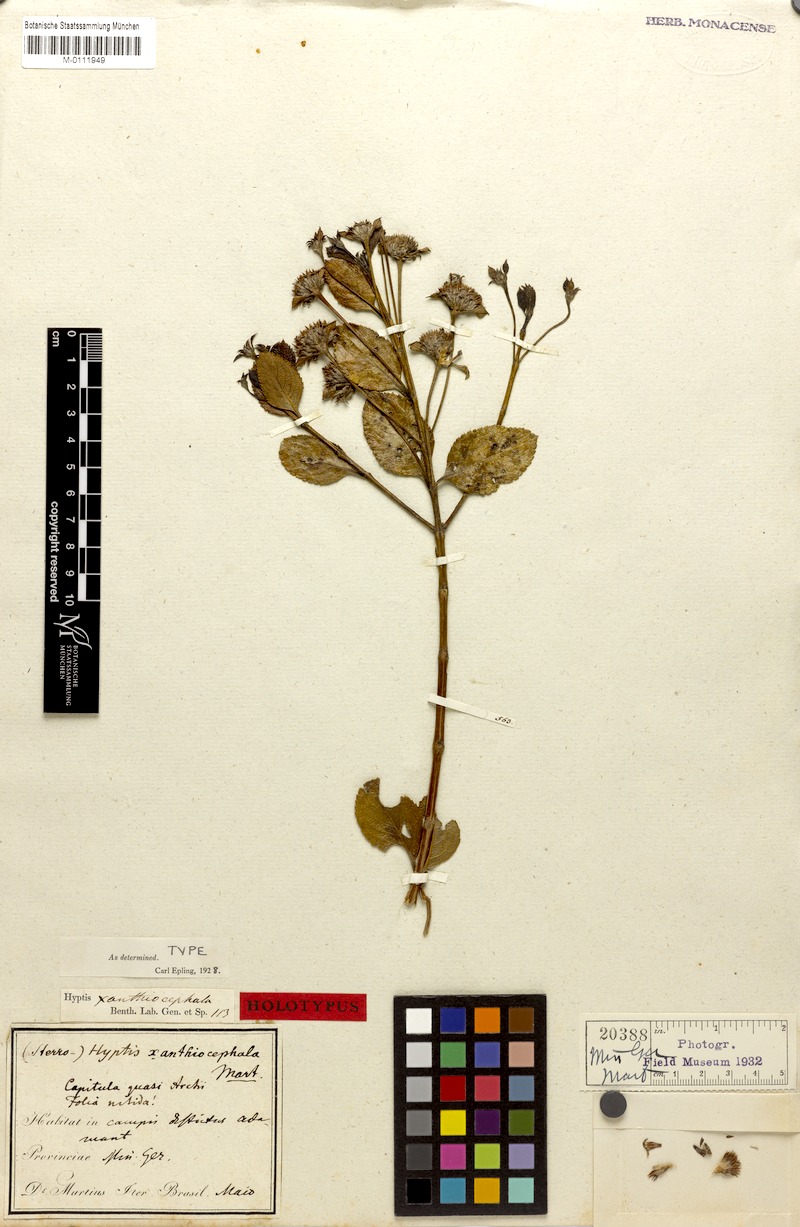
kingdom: Plantae
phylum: Tracheophyta
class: Magnoliopsida
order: Lamiales
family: Lamiaceae
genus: Hyptis
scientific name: Hyptis xanthiocephala
